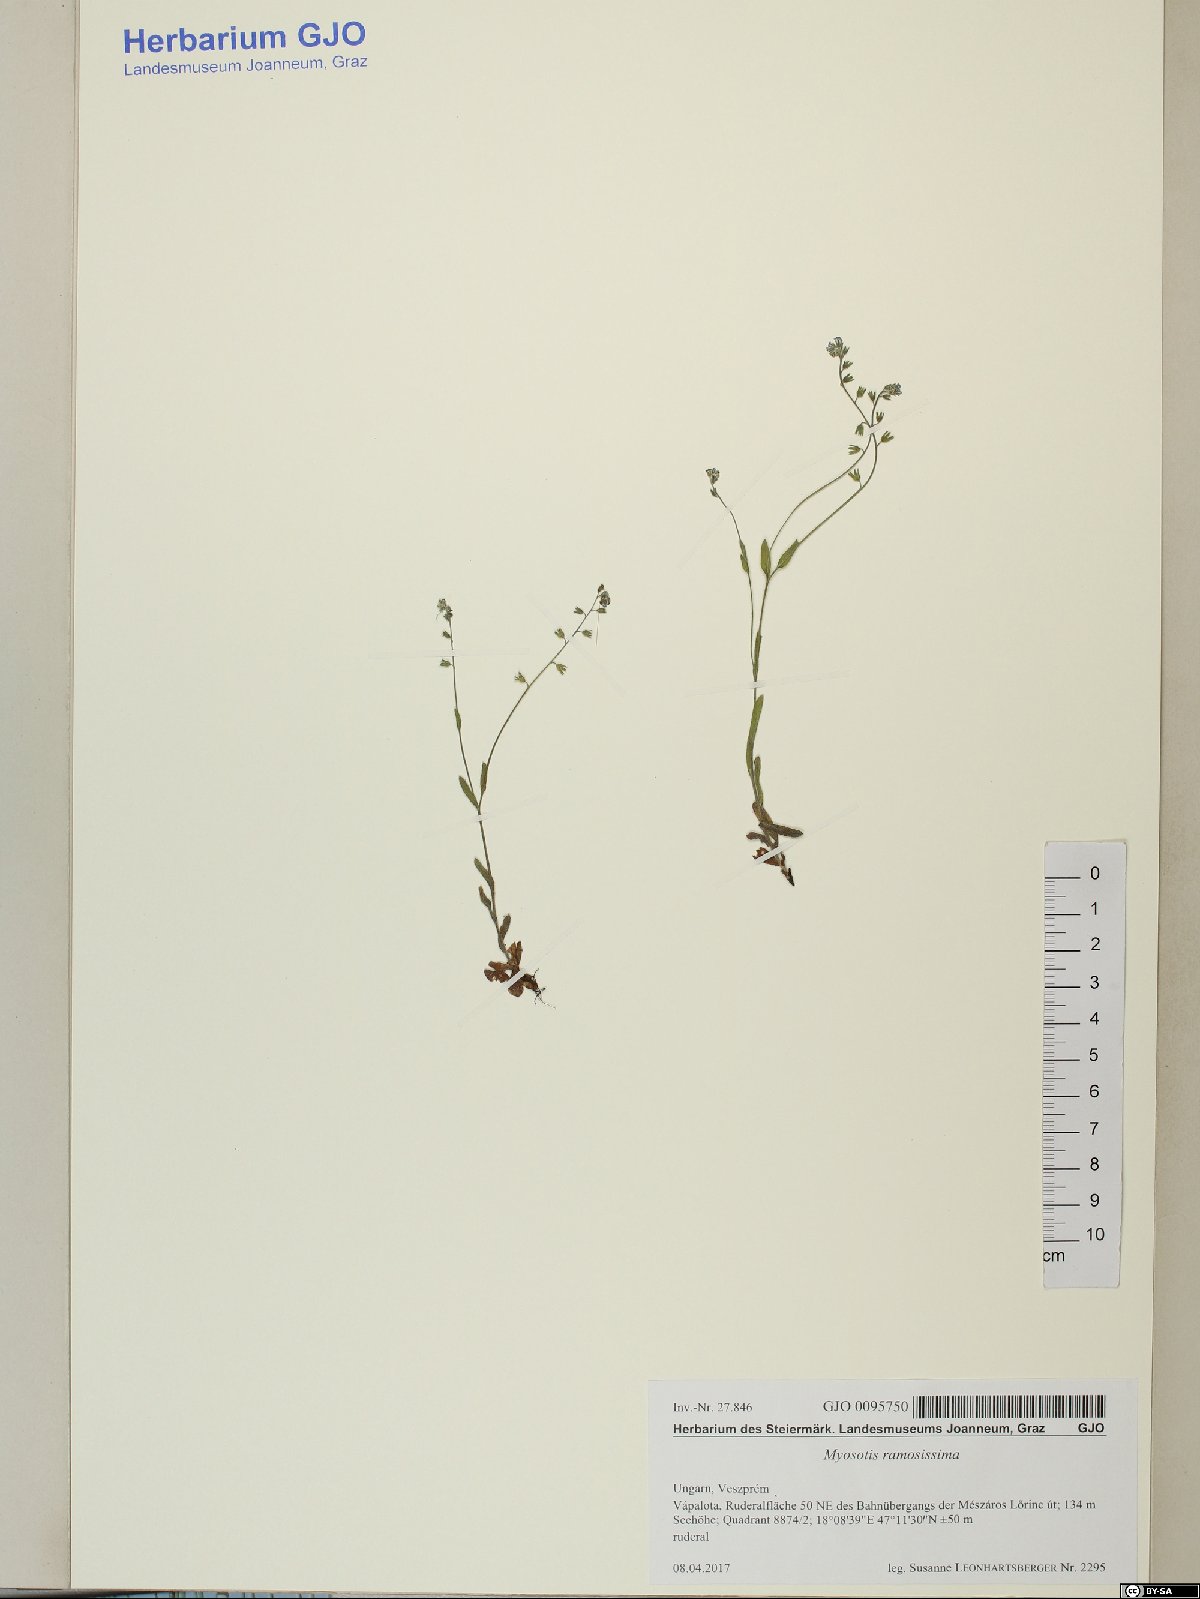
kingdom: Plantae
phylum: Tracheophyta
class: Magnoliopsida
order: Boraginales
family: Boraginaceae
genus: Myosotis
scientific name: Myosotis ramosissima
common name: Early forget-me-not
